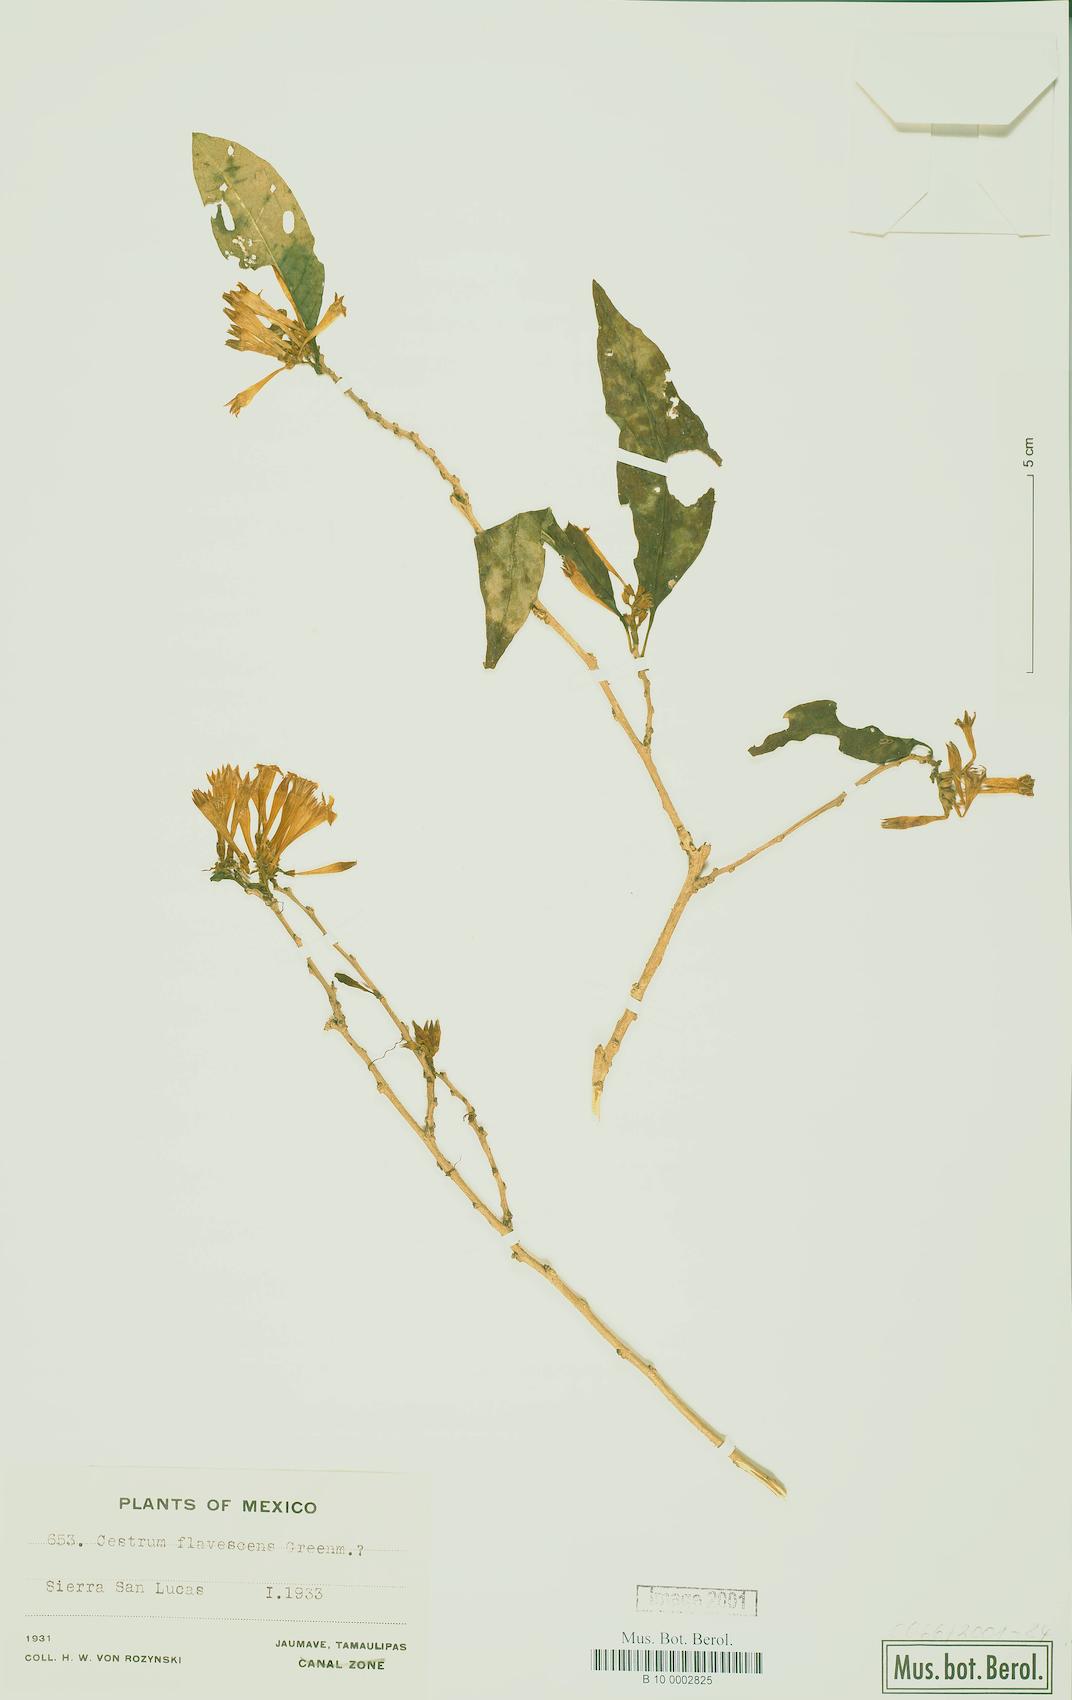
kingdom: Plantae
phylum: Tracheophyta
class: Magnoliopsida
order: Solanales
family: Solanaceae
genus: Cestrum
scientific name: Cestrum flavescens
